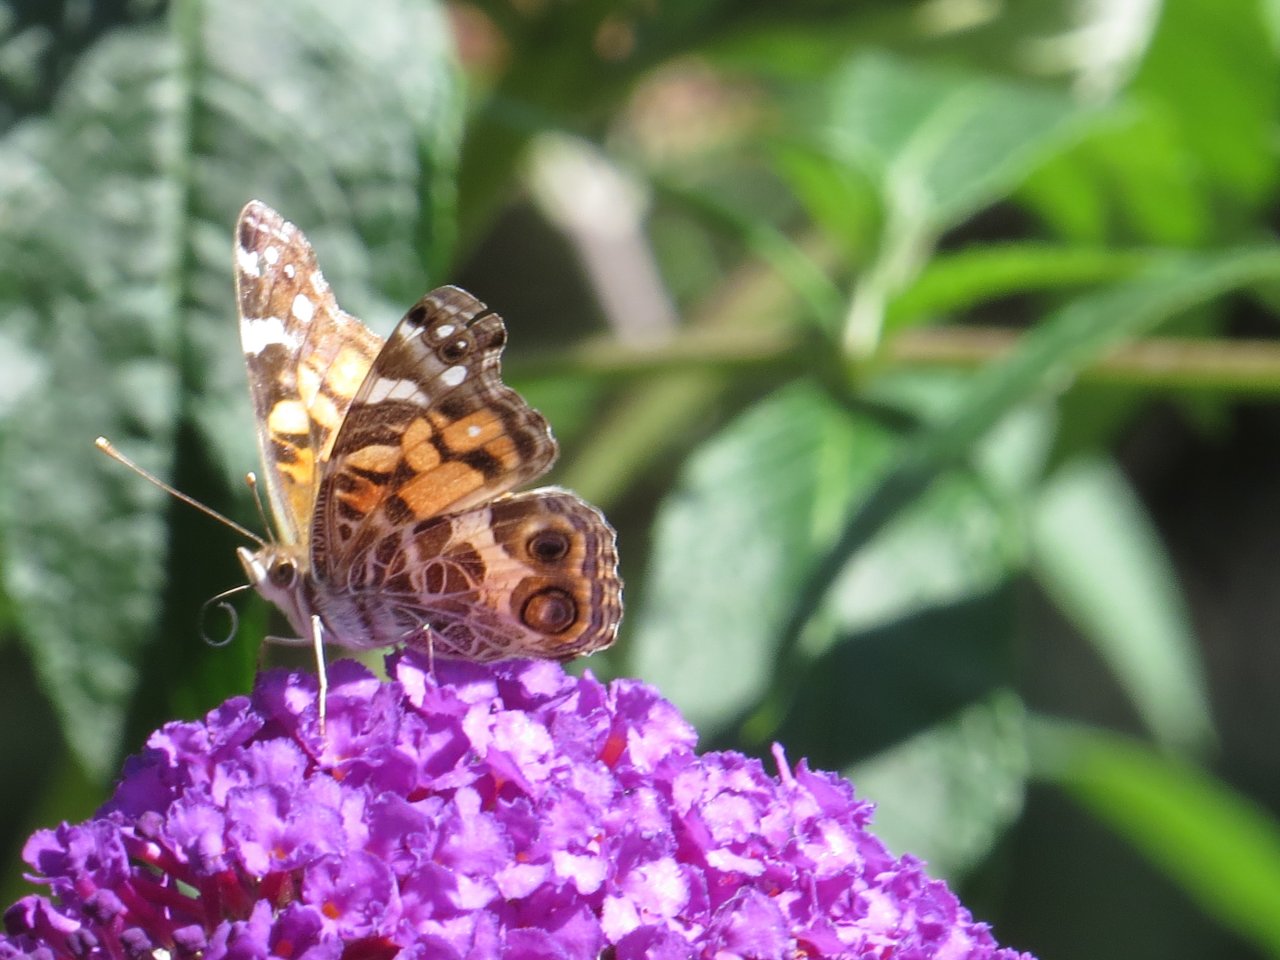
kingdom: Animalia
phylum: Arthropoda
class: Insecta
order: Lepidoptera
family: Nymphalidae
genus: Vanessa
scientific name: Vanessa virginiensis
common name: American Lady
